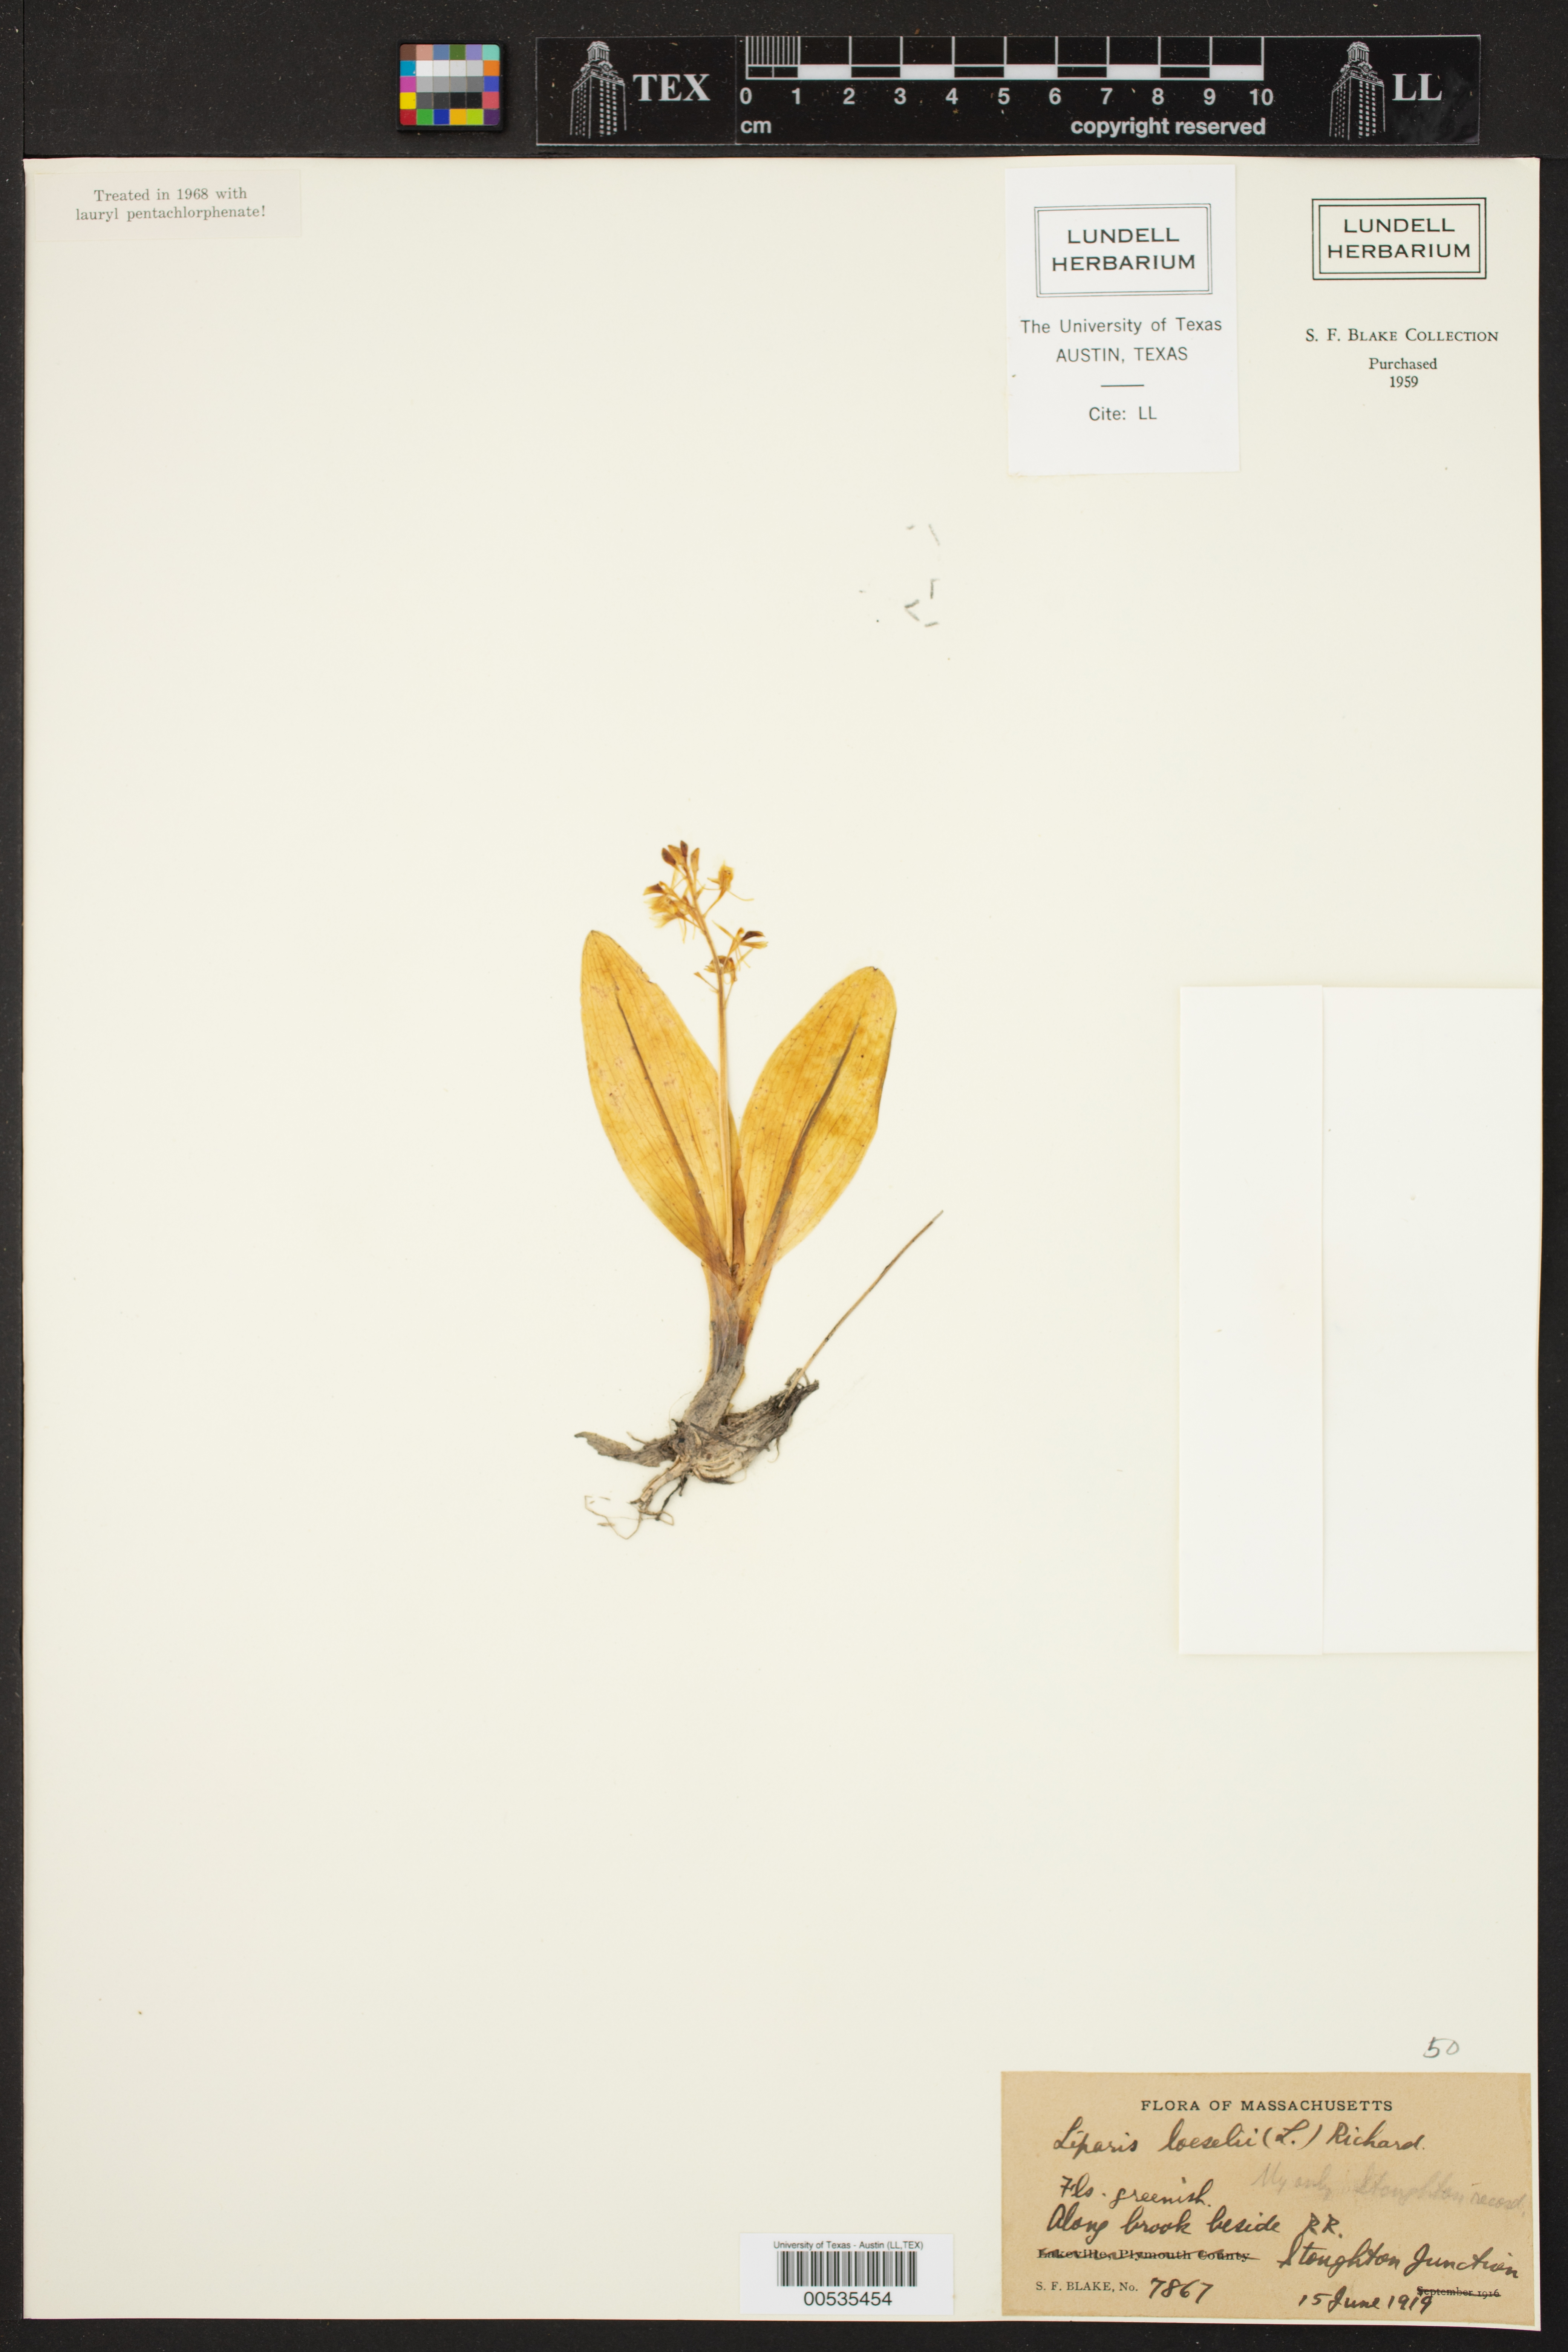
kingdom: Animalia
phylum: Arthropoda
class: Insecta
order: Coleoptera
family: Curculionidae
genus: Liparis
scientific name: Liparis loeselii
